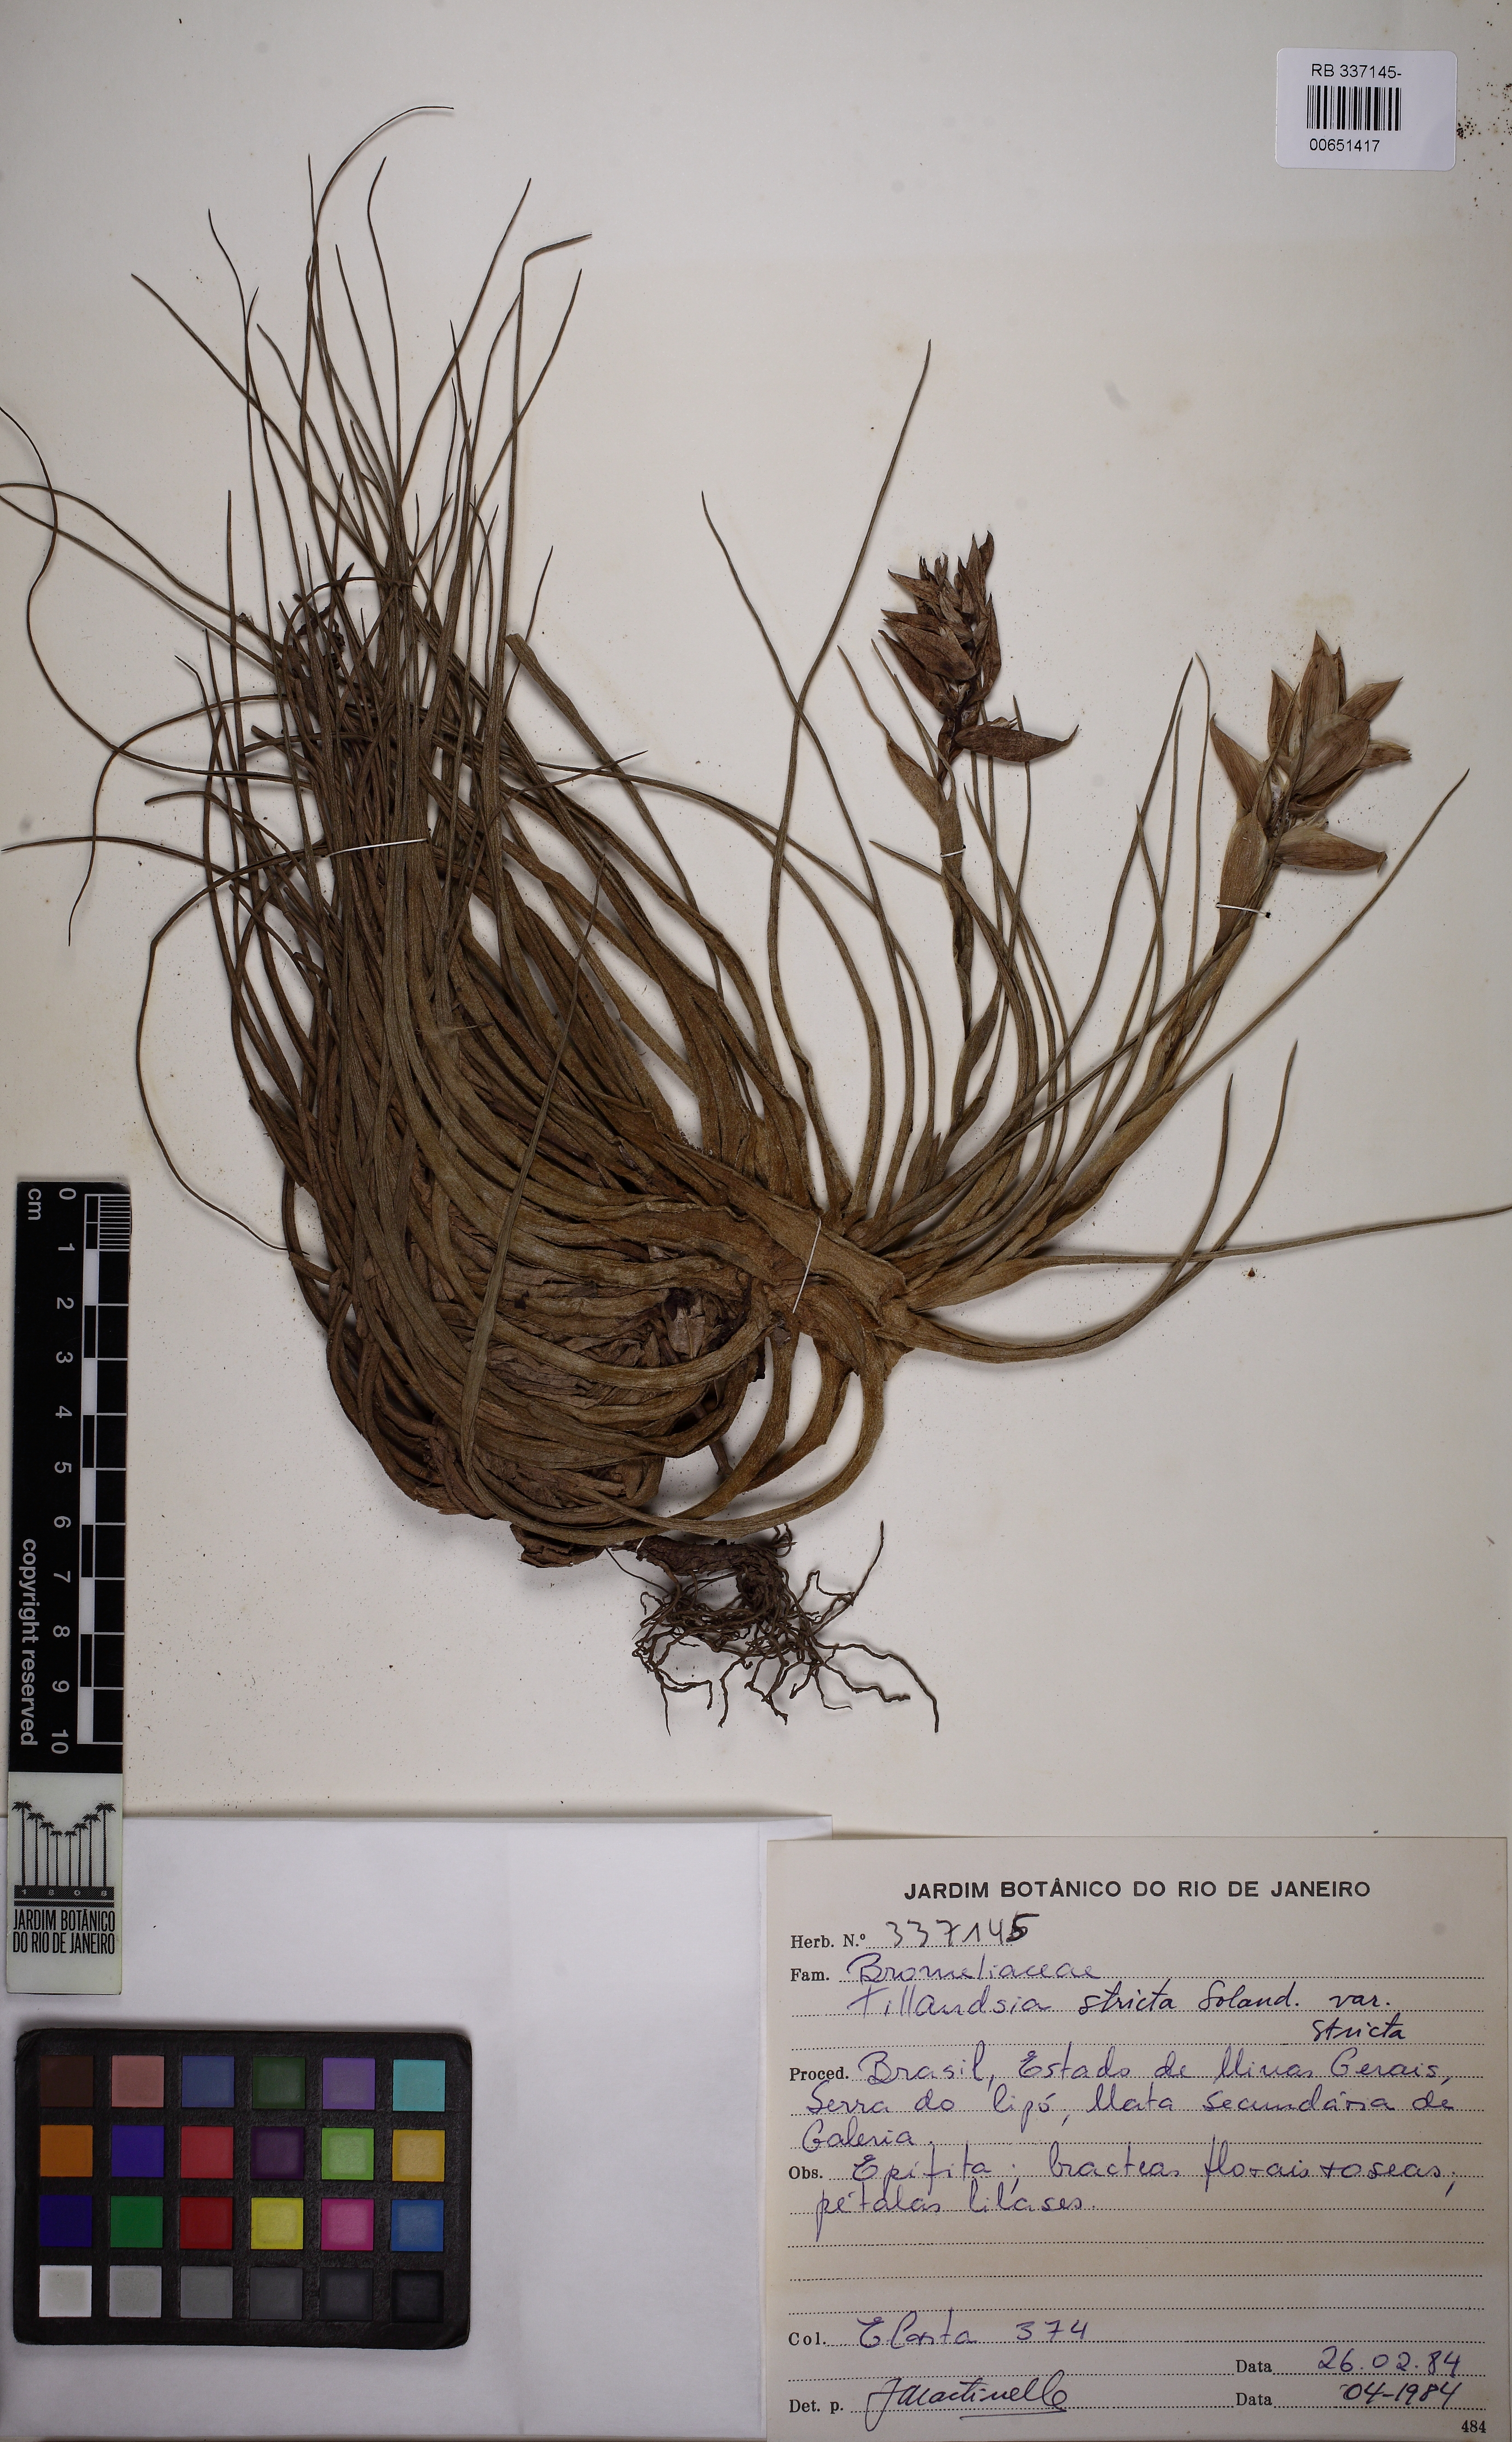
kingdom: Plantae
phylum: Tracheophyta
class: Liliopsida
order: Poales
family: Bromeliaceae
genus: Tillandsia
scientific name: Tillandsia stricta
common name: Airplant
